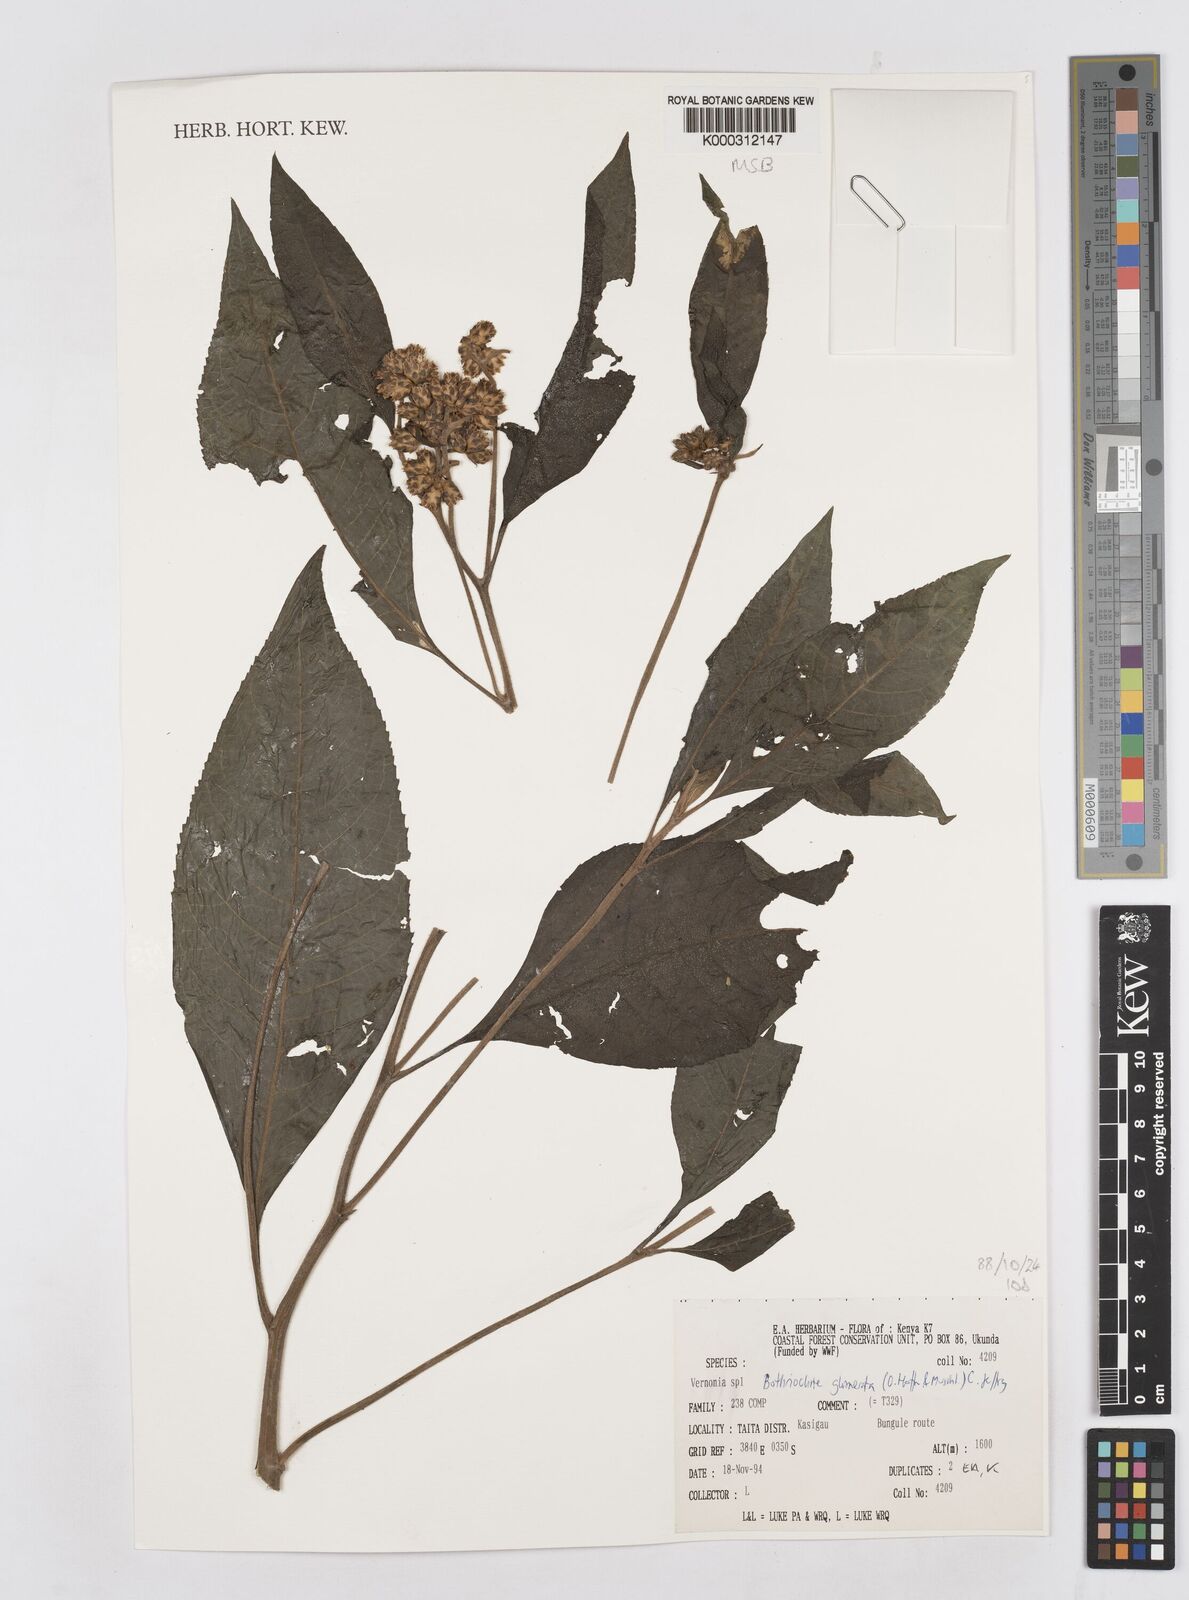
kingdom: Plantae
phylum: Tracheophyta
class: Magnoliopsida
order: Asterales
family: Asteraceae
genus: Bothriocline
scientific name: Bothriocline glomerata
